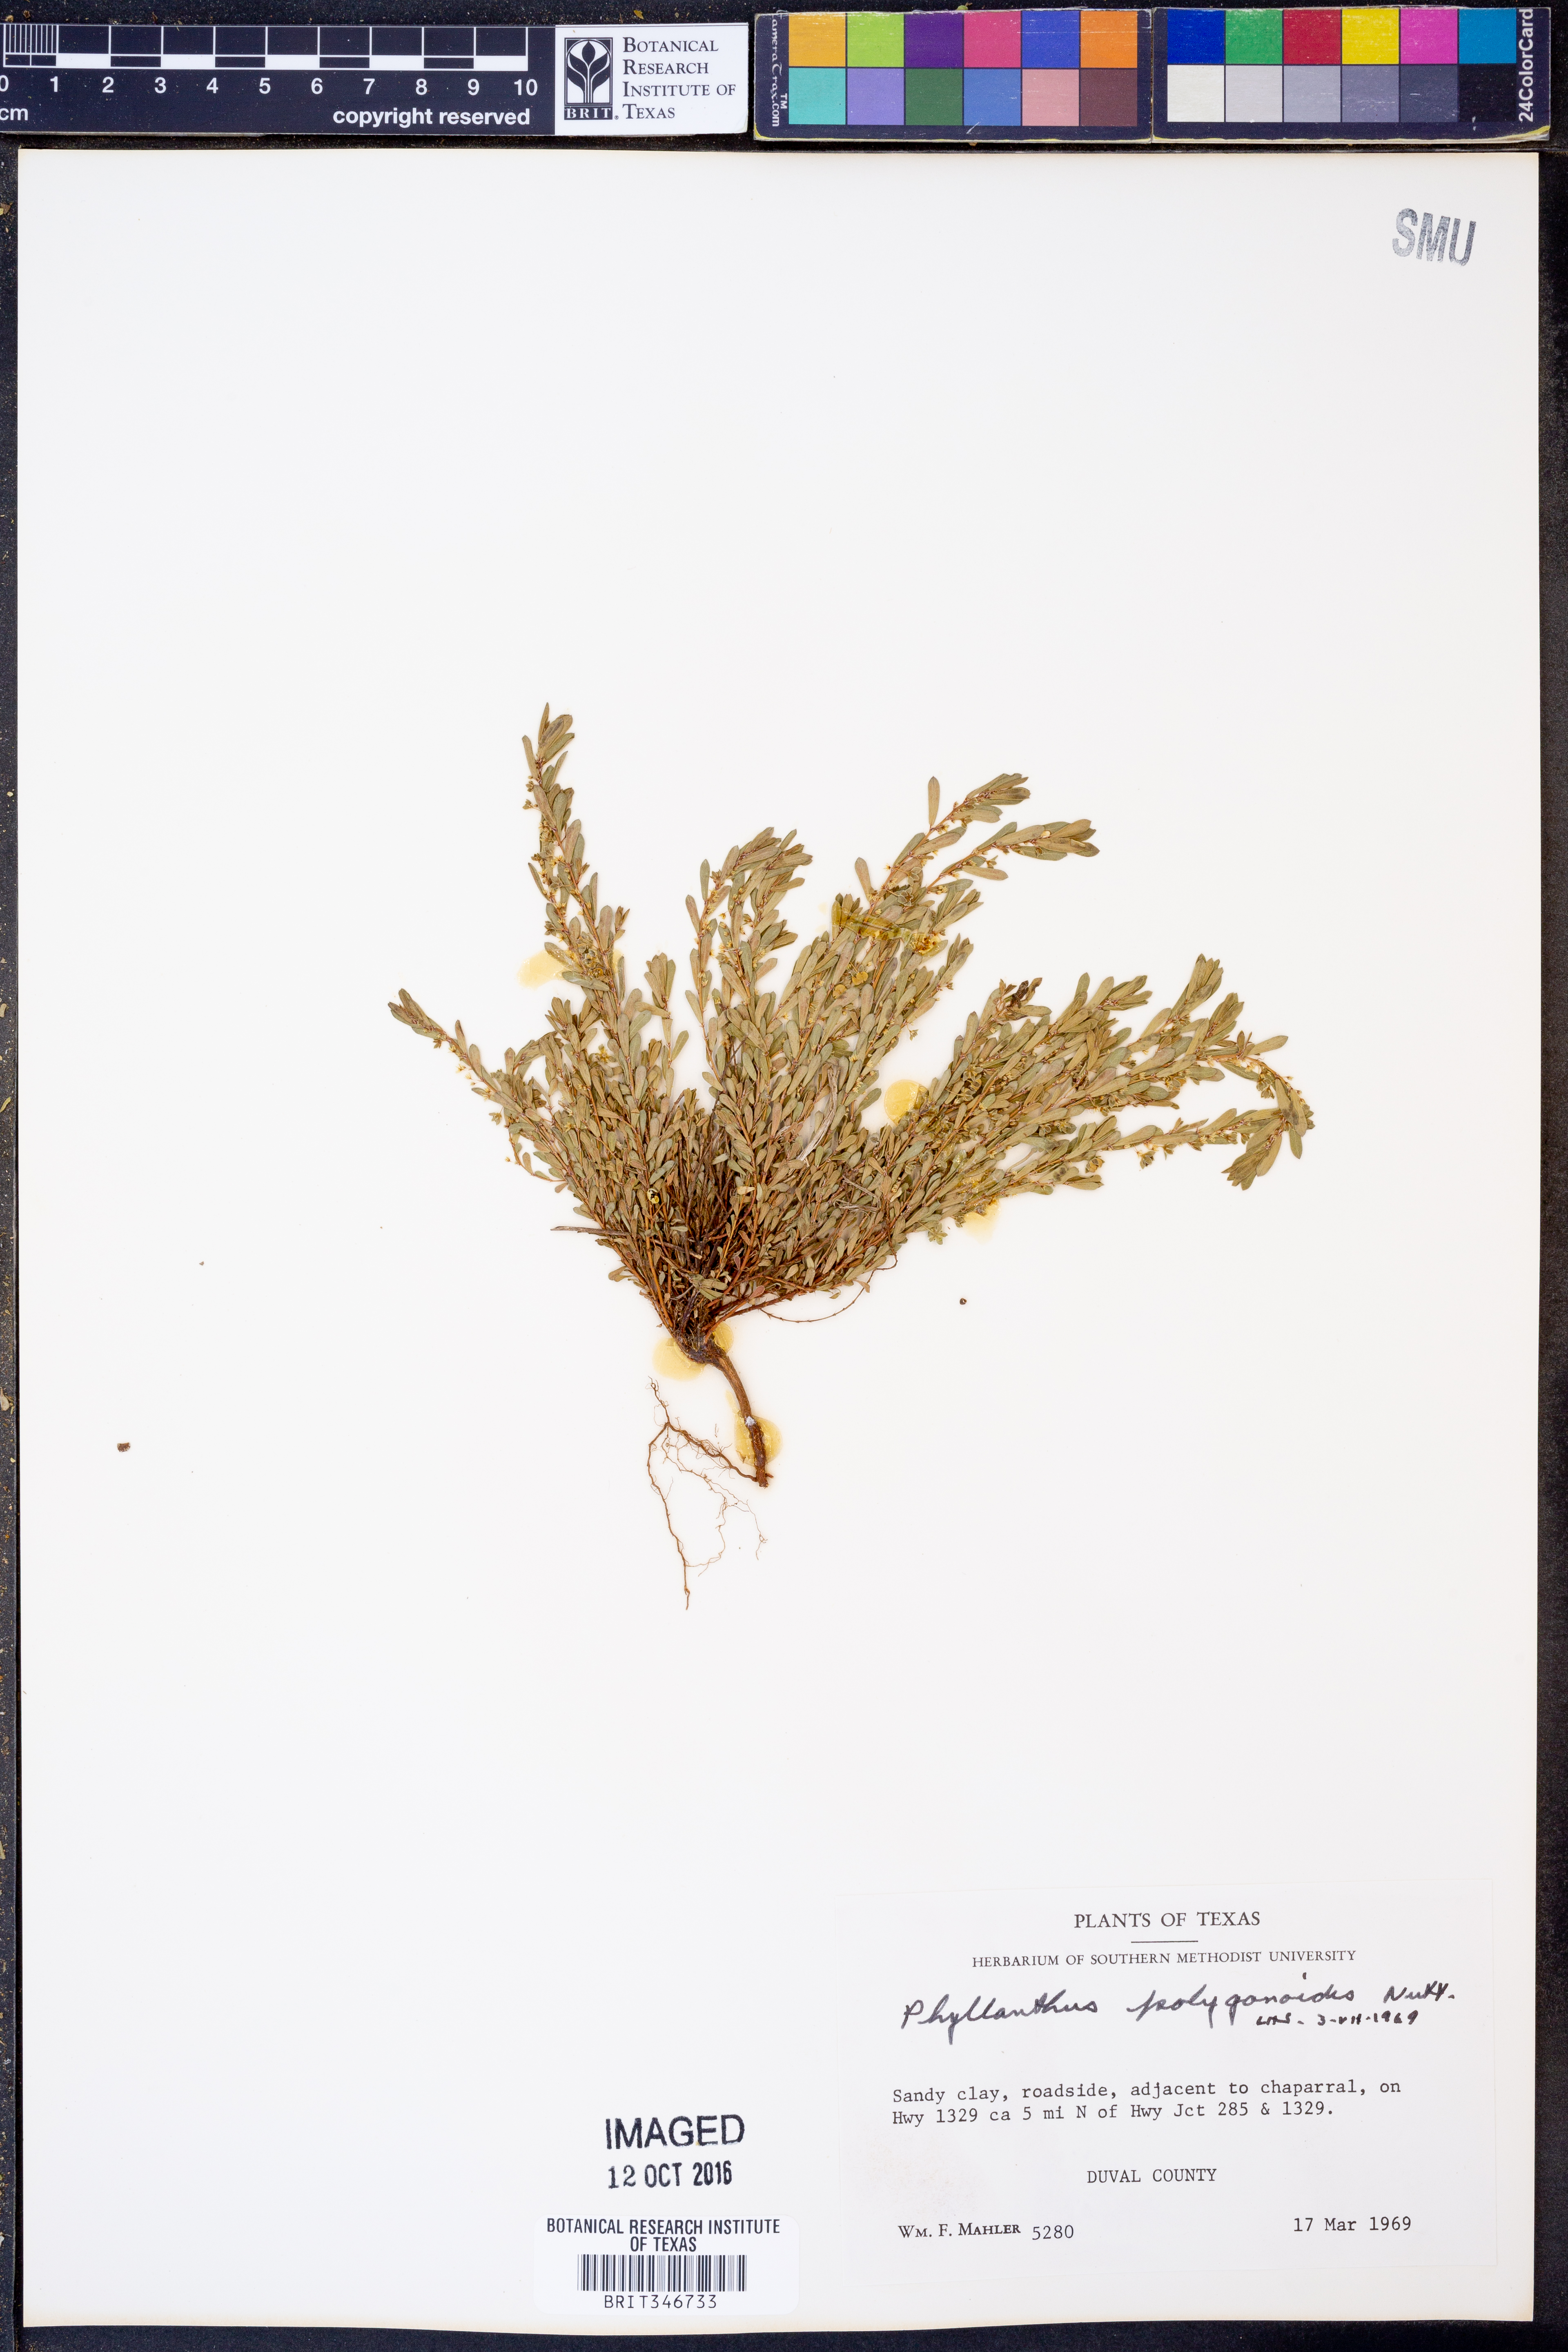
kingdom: Plantae
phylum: Tracheophyta
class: Magnoliopsida
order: Malpighiales
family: Phyllanthaceae
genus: Phyllanthus
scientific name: Phyllanthus polygonoides
